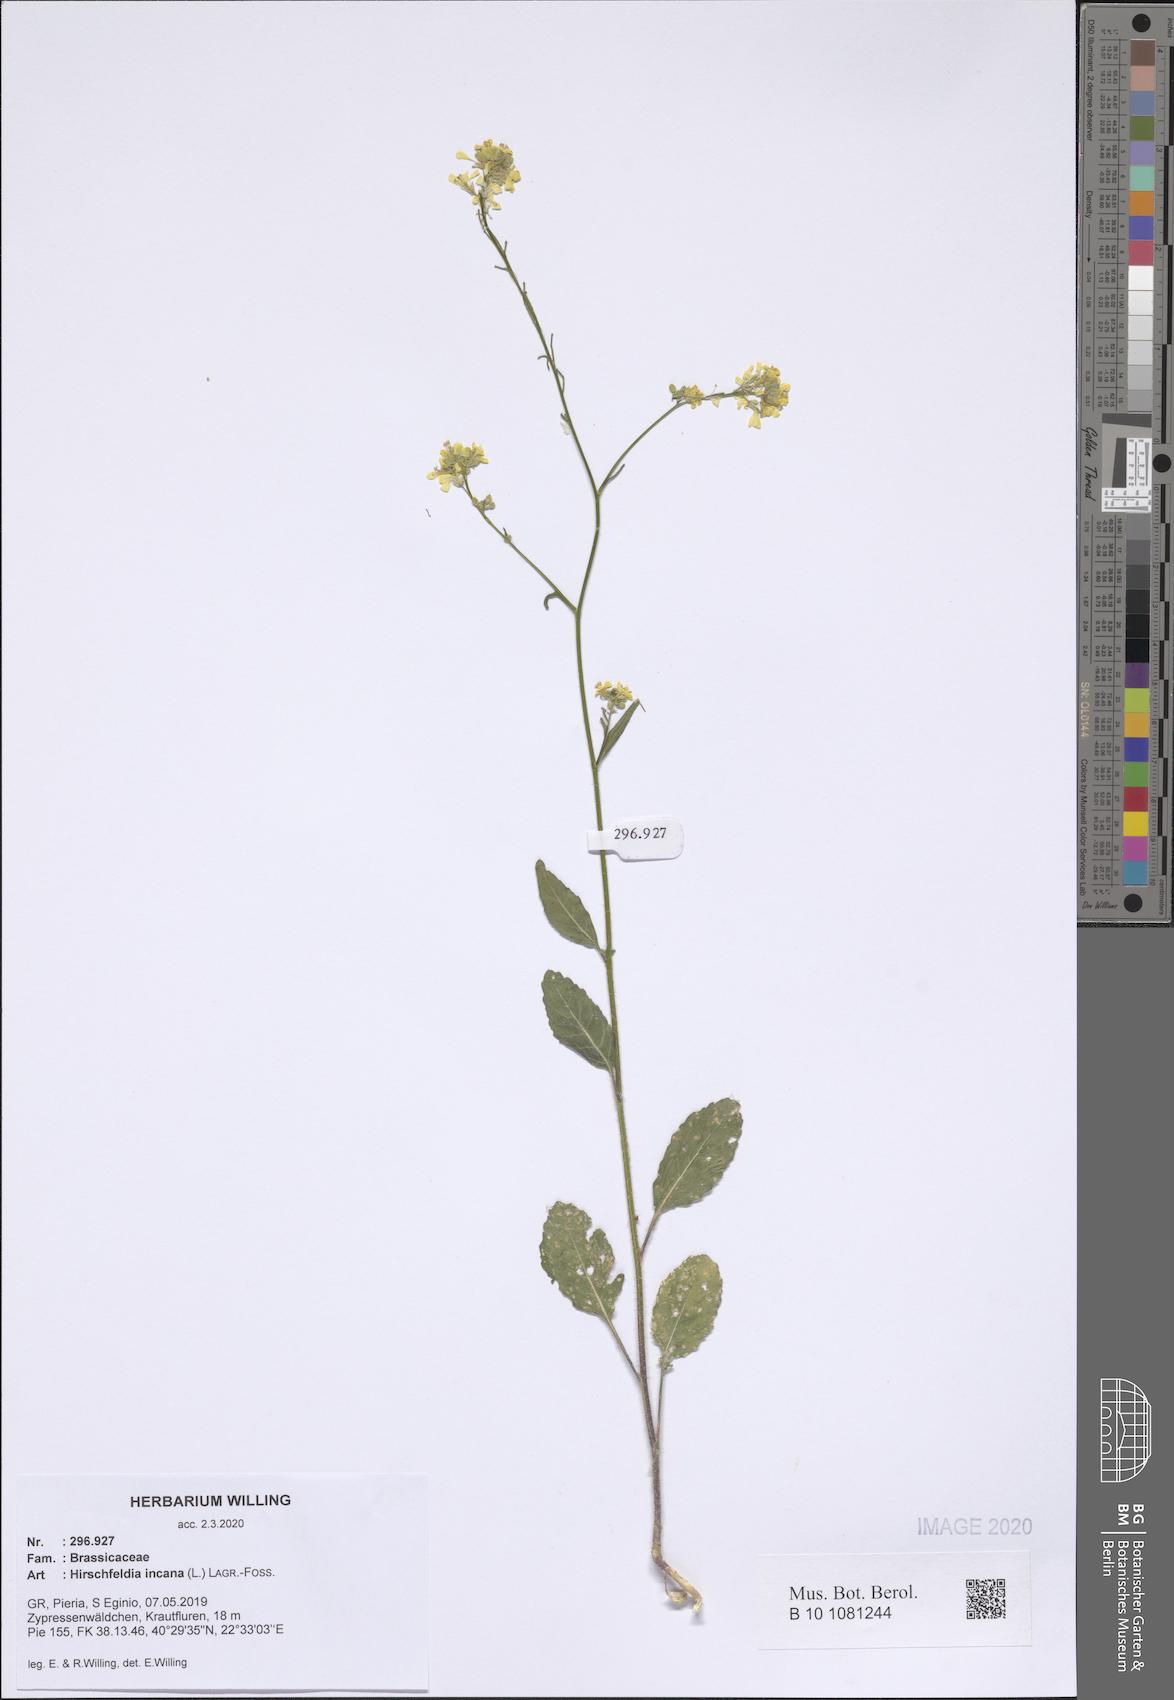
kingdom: Plantae
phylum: Tracheophyta
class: Magnoliopsida
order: Brassicales
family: Brassicaceae
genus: Hirschfeldia
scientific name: Hirschfeldia incana
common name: Hoary mustard
